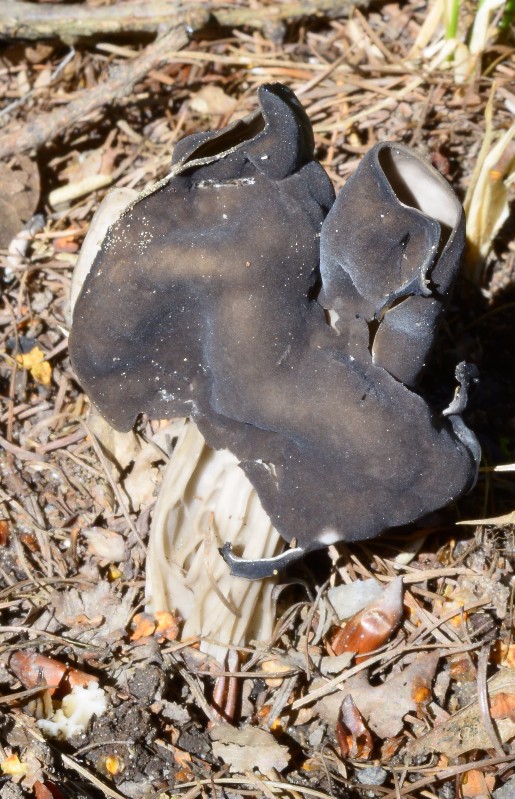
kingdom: Fungi
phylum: Ascomycota
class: Pezizomycetes
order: Pezizales
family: Helvellaceae
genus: Helvella
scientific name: Helvella lacunosa
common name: grubet foldhat
